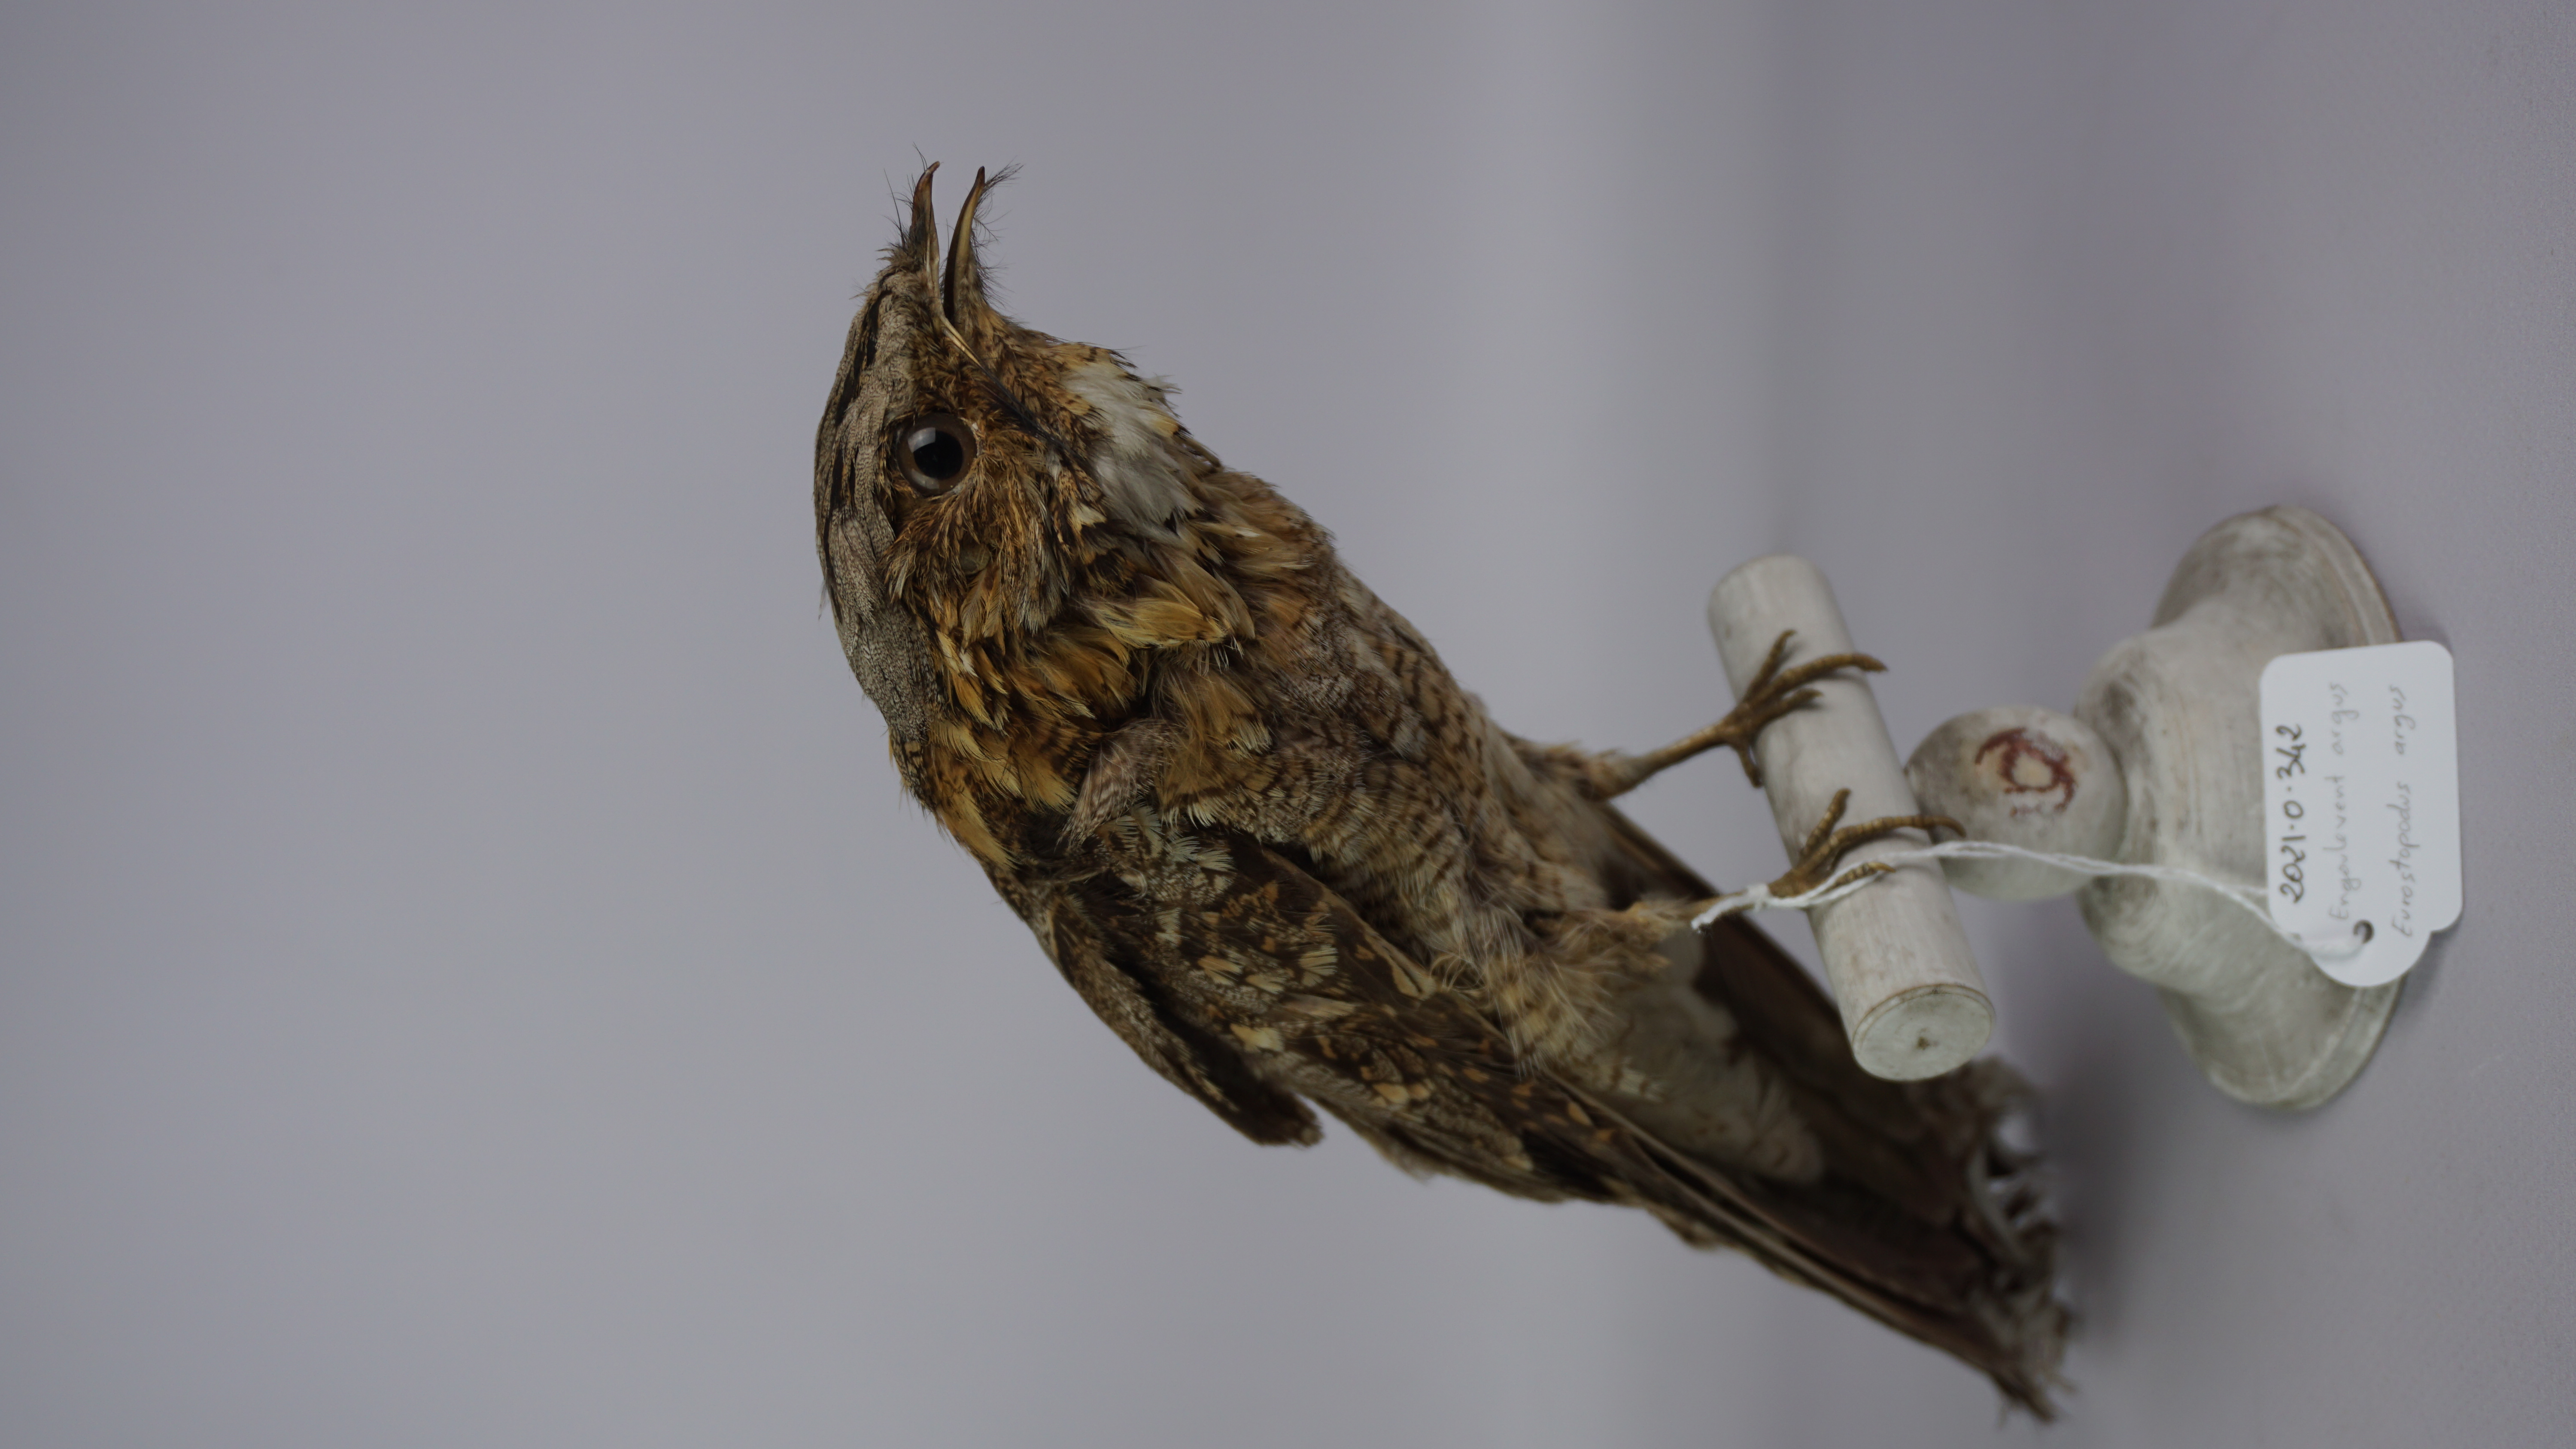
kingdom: Animalia
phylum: Chordata
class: Aves
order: Caprimulgiformes
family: Caprimulgidae
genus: Eurostopodus
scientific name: Eurostopodus argus
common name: Spotted nightjar
